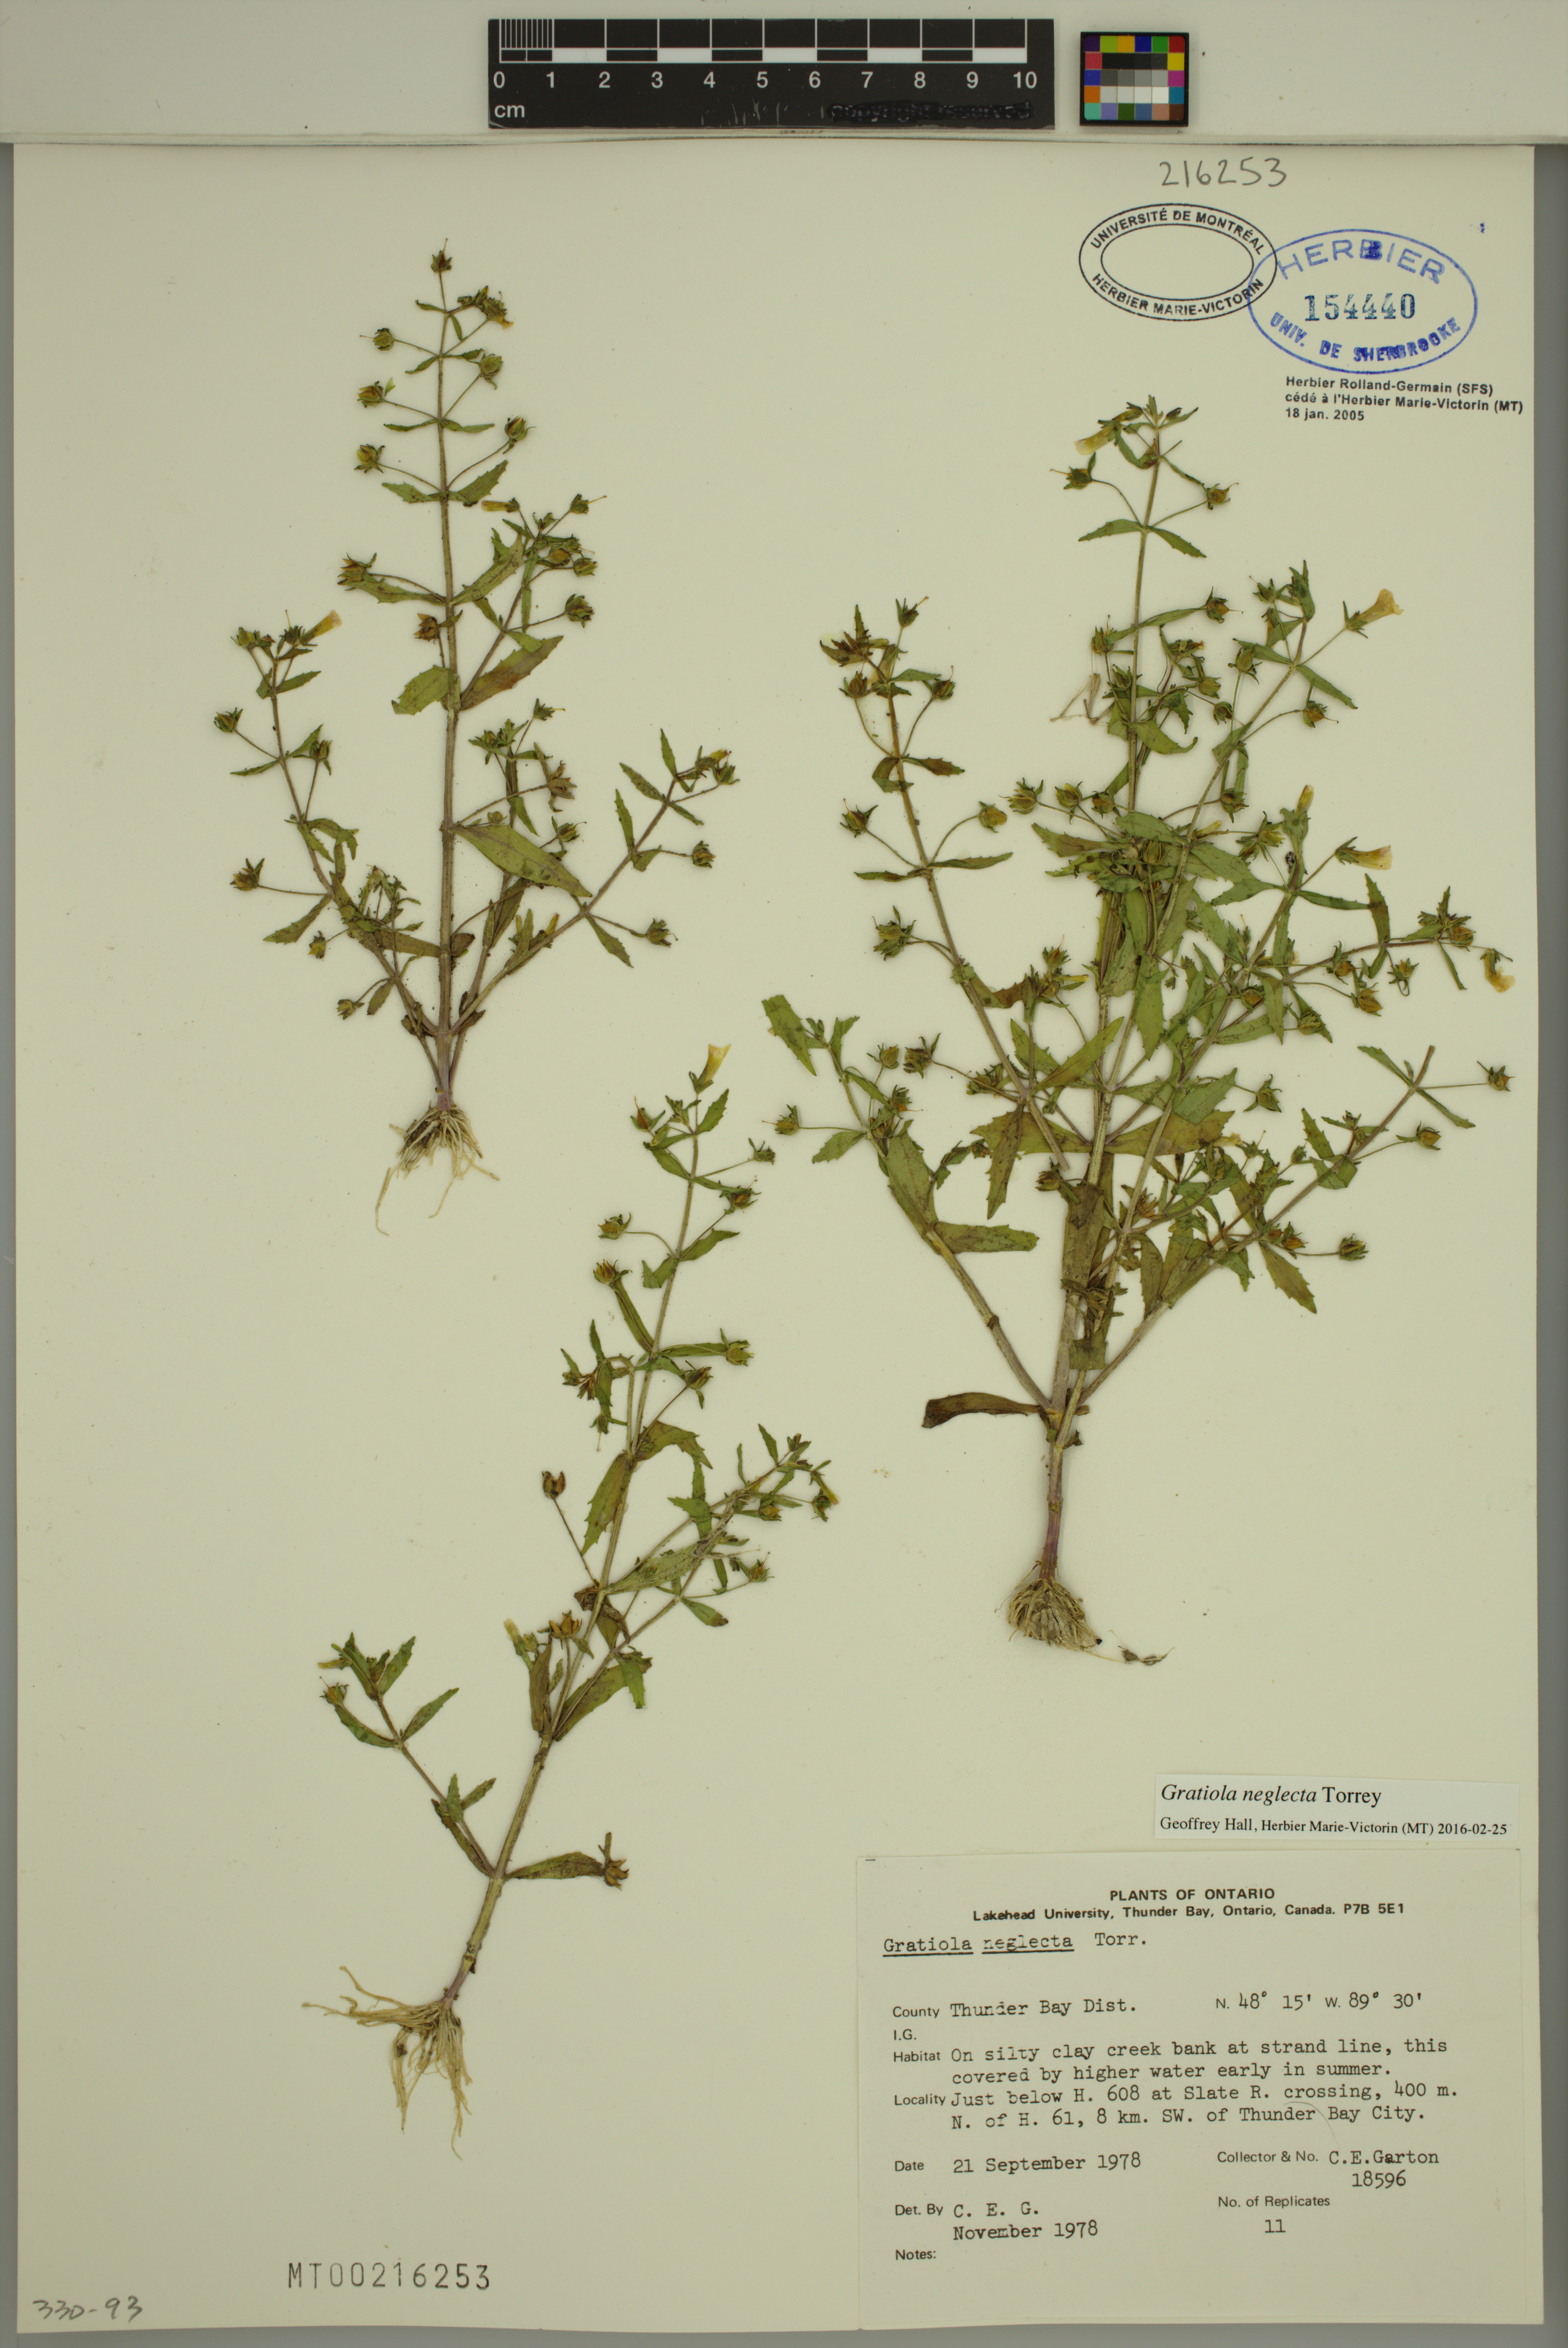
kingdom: Plantae
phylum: Tracheophyta
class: Magnoliopsida
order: Lamiales
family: Plantaginaceae
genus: Gratiola
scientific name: Gratiola neglecta
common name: American hedge-hyssop
